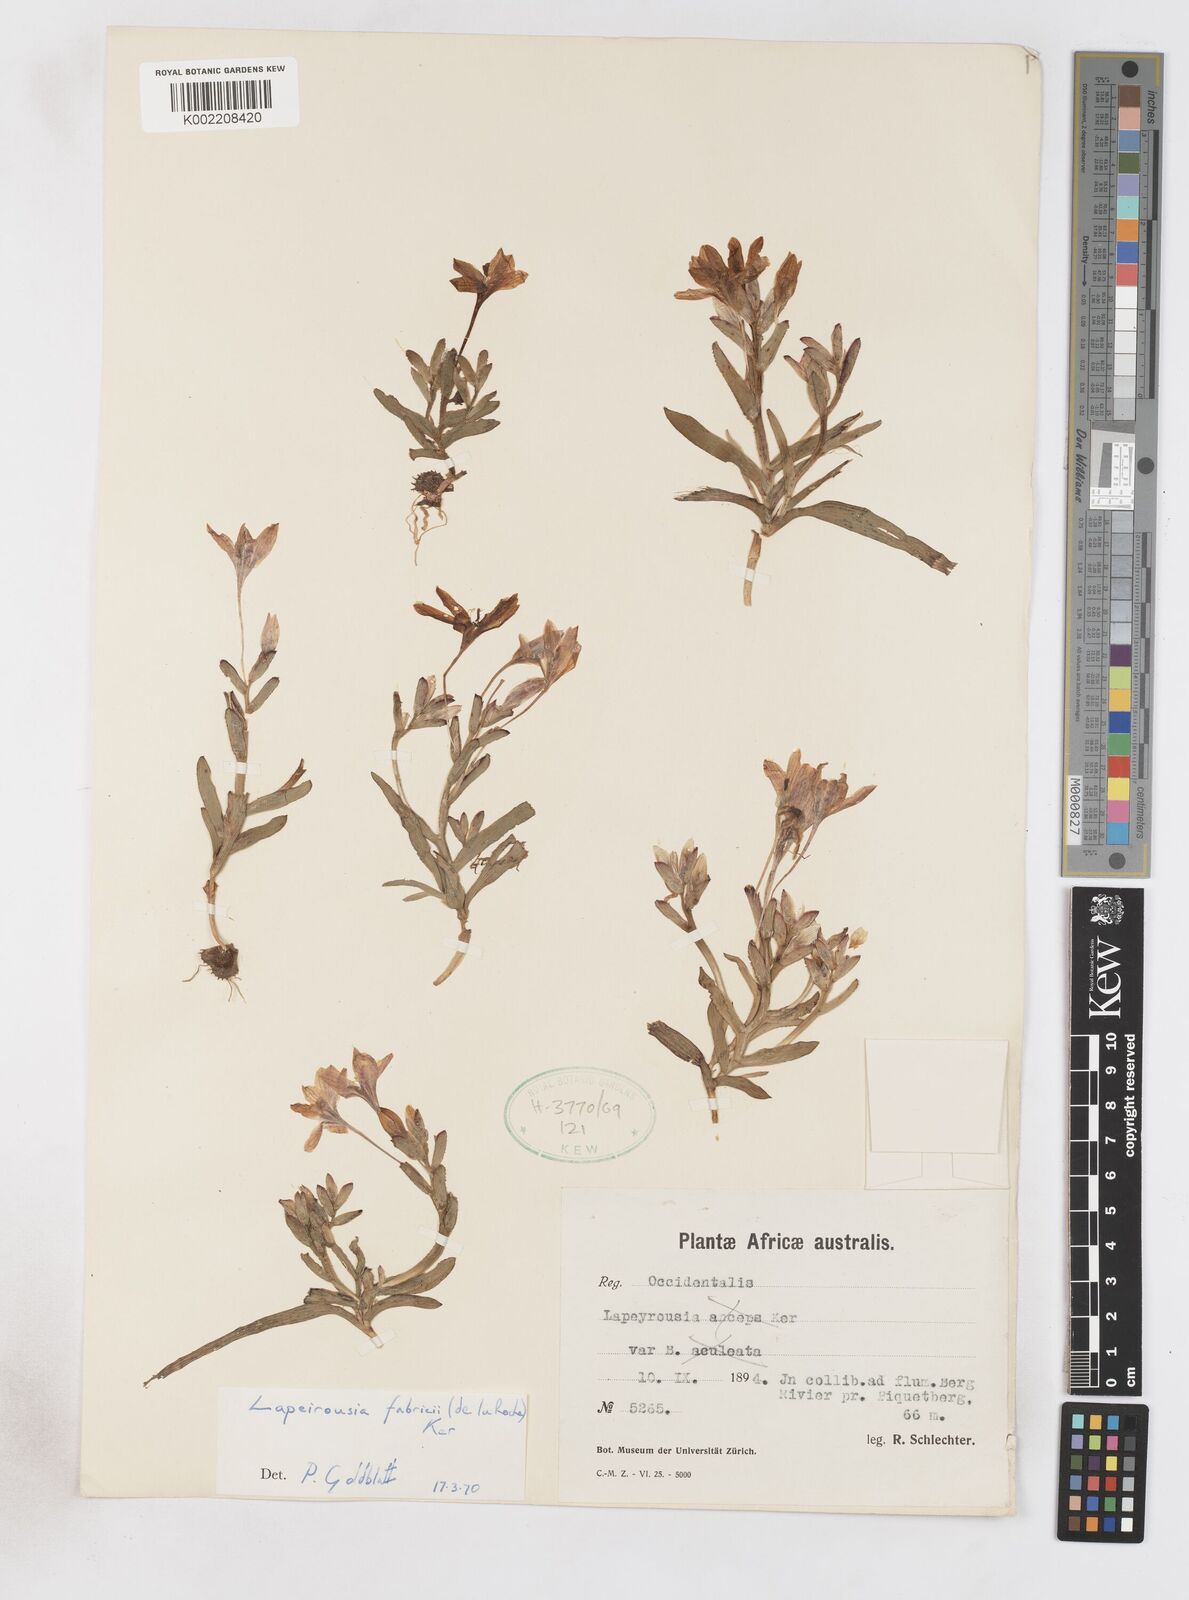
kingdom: Plantae
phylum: Tracheophyta
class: Liliopsida
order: Asparagales
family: Iridaceae
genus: Lapeirousia
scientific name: Lapeirousia fabricii
